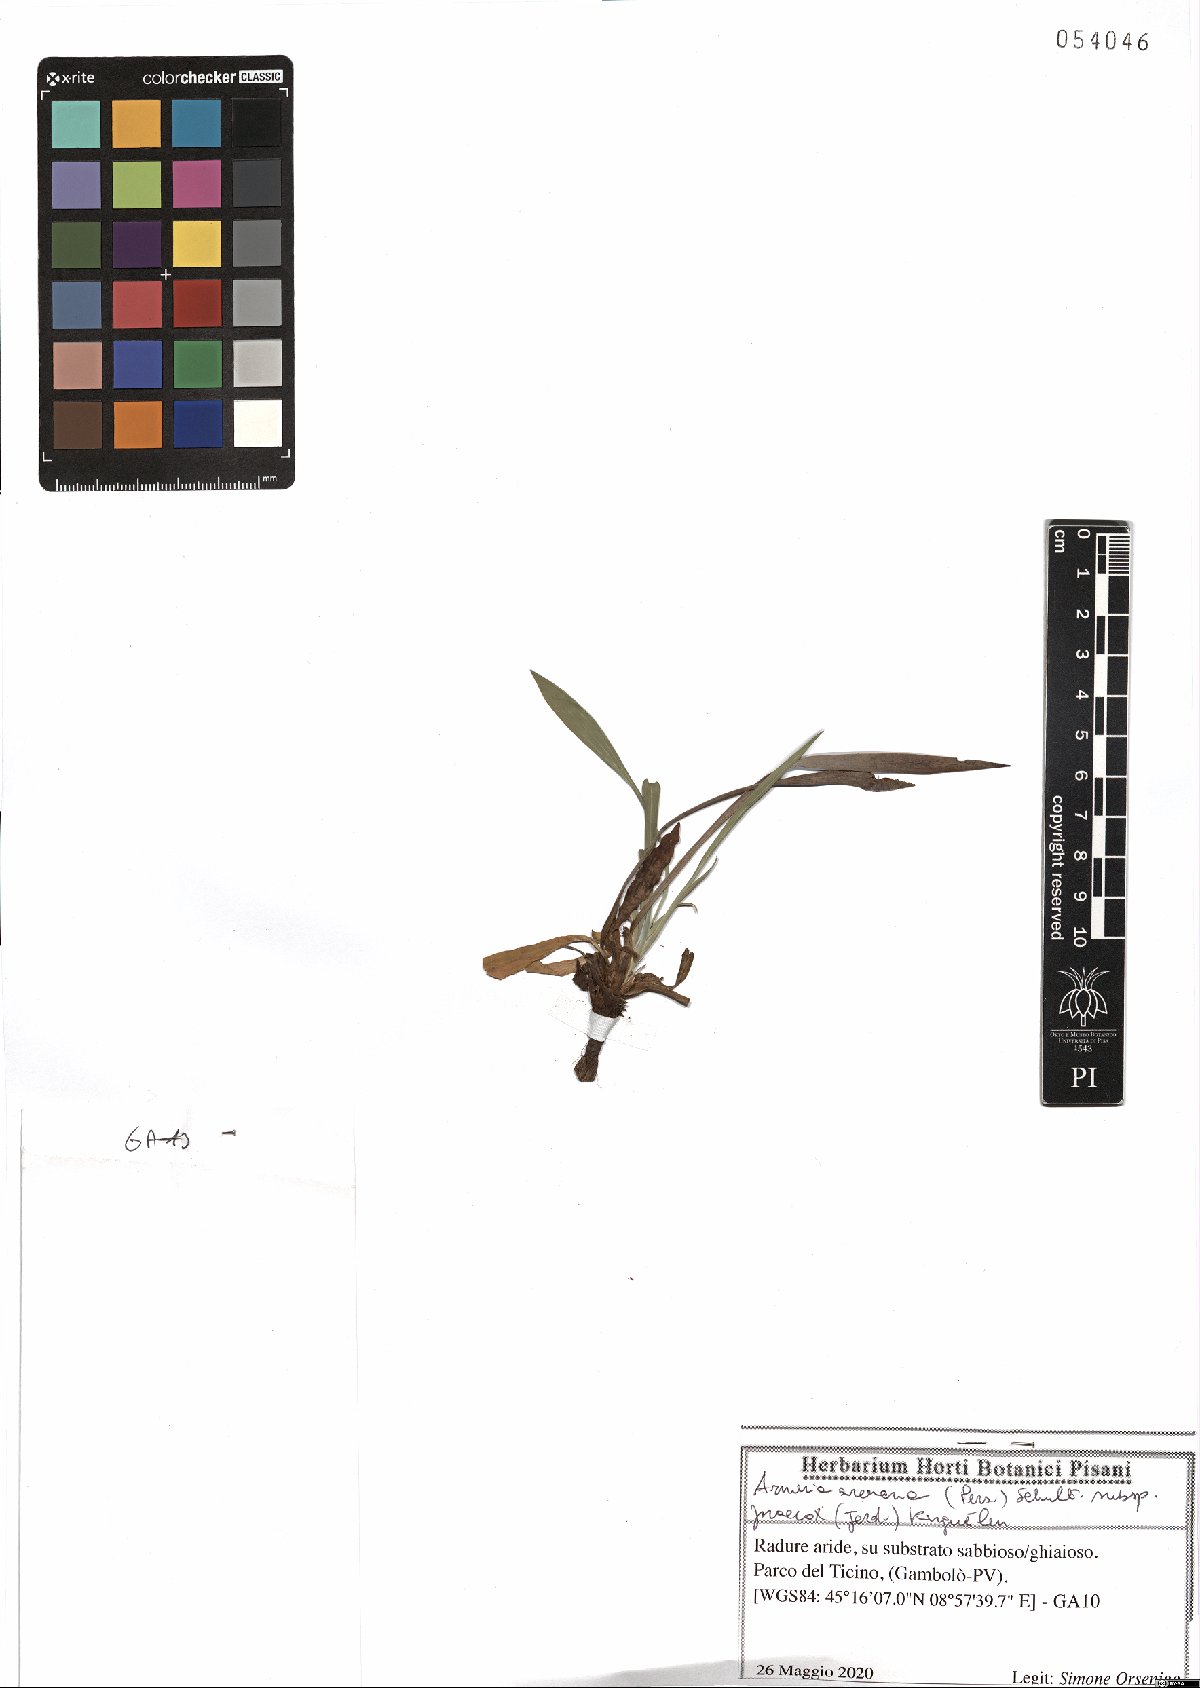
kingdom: Plantae
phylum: Tracheophyta
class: Magnoliopsida
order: Caryophyllales
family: Plumbaginaceae
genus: Armeria
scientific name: Armeria arenaria
